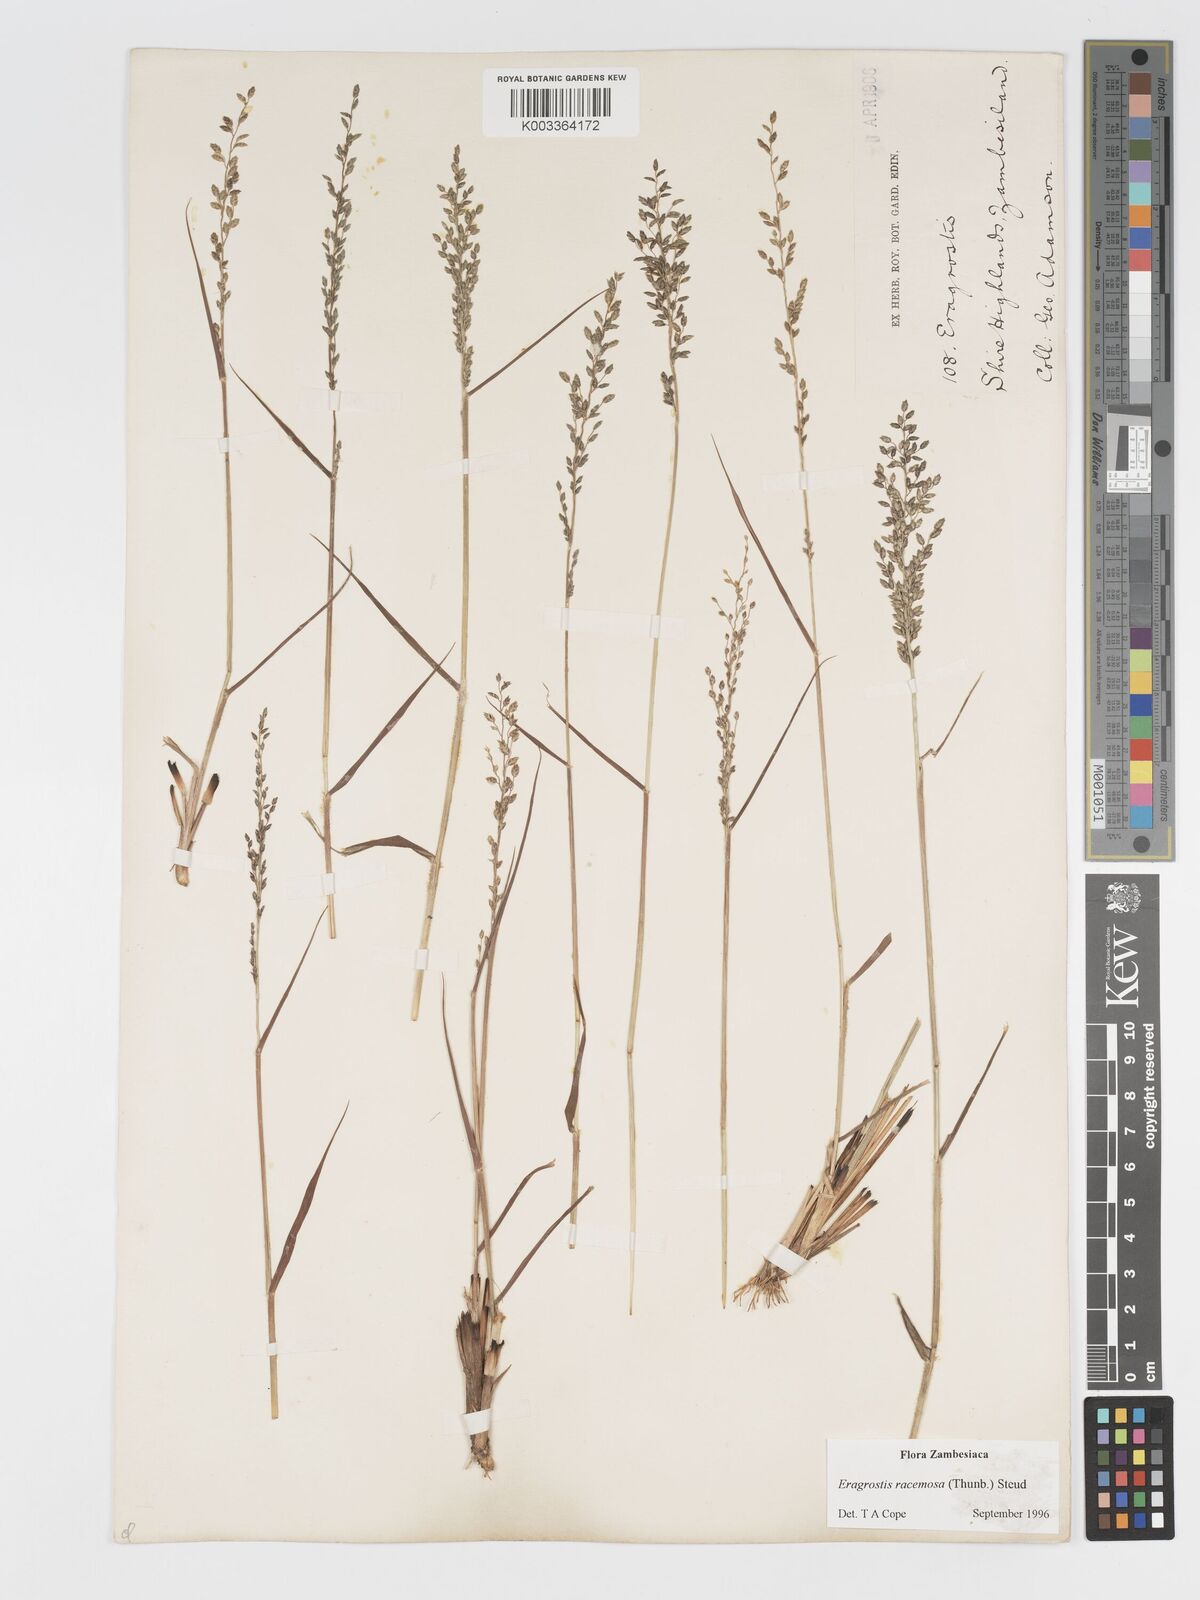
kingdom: Plantae
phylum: Tracheophyta
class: Liliopsida
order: Poales
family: Poaceae
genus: Eragrostis
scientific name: Eragrostis racemosa
